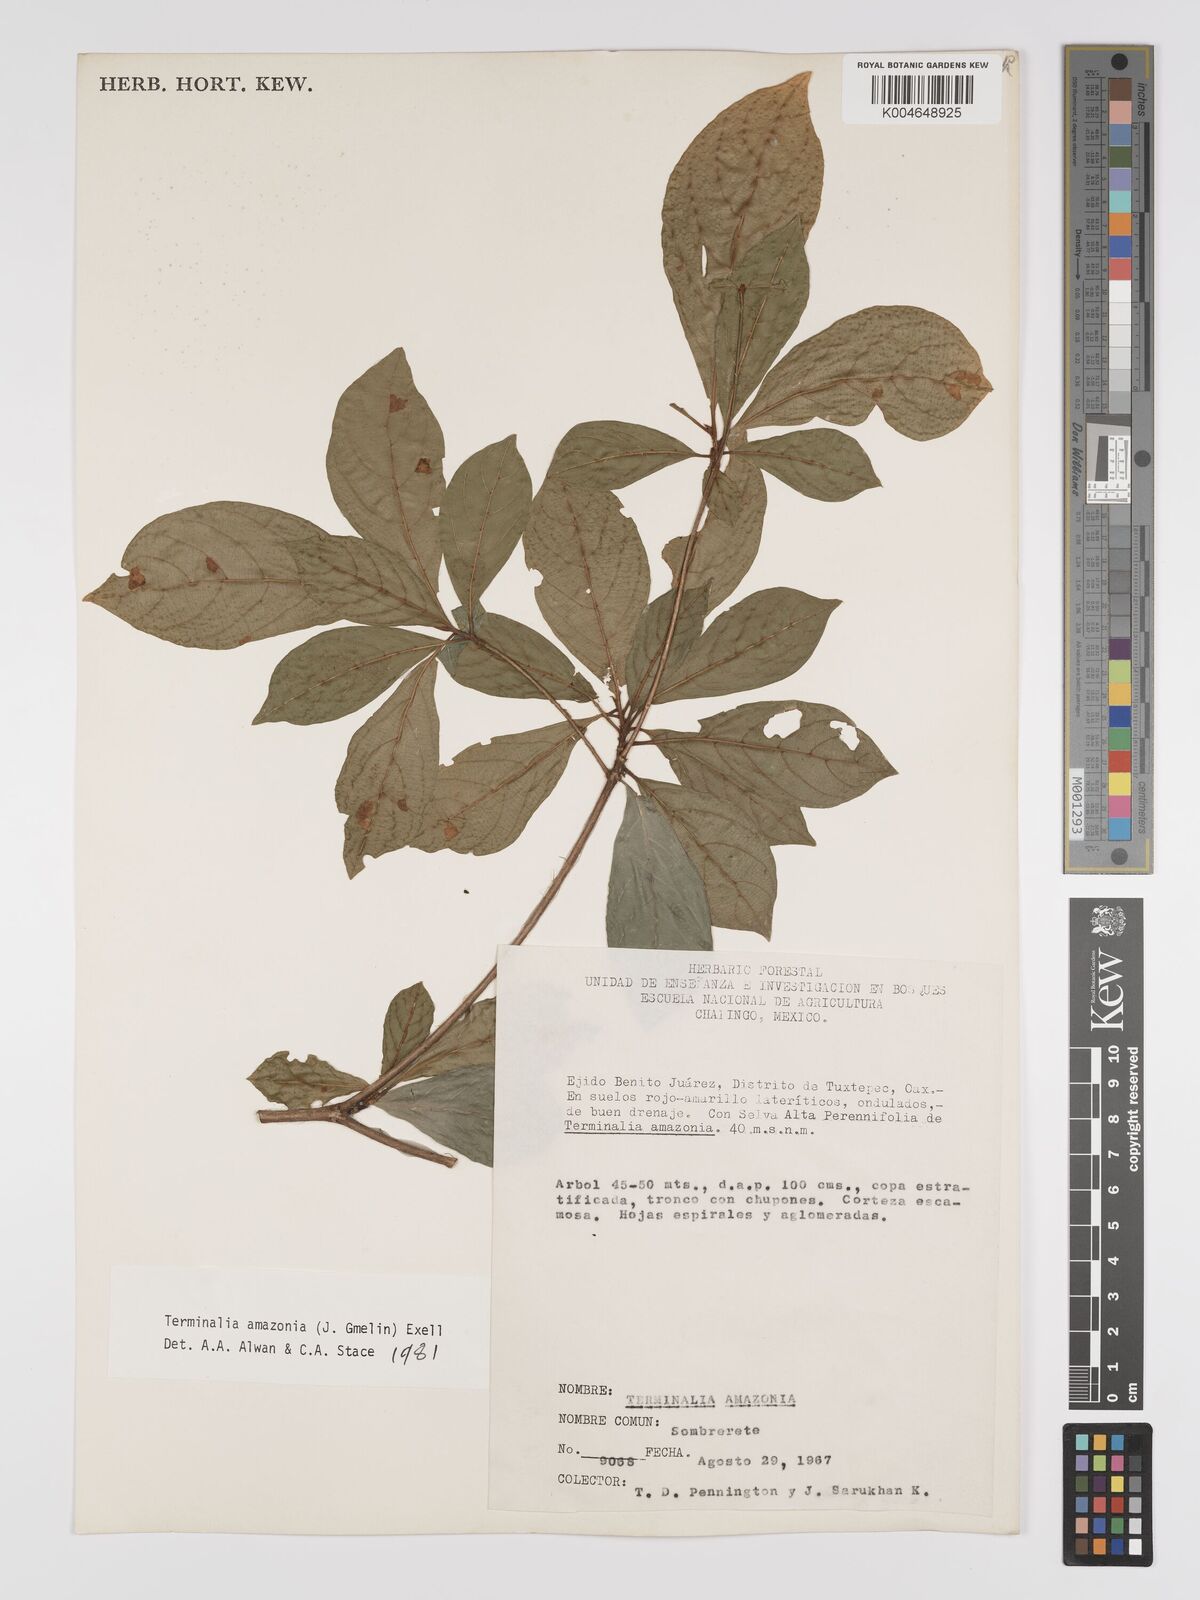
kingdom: Plantae
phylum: Tracheophyta
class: Magnoliopsida
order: Myrtales
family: Combretaceae
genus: Terminalia
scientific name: Terminalia amazonica
